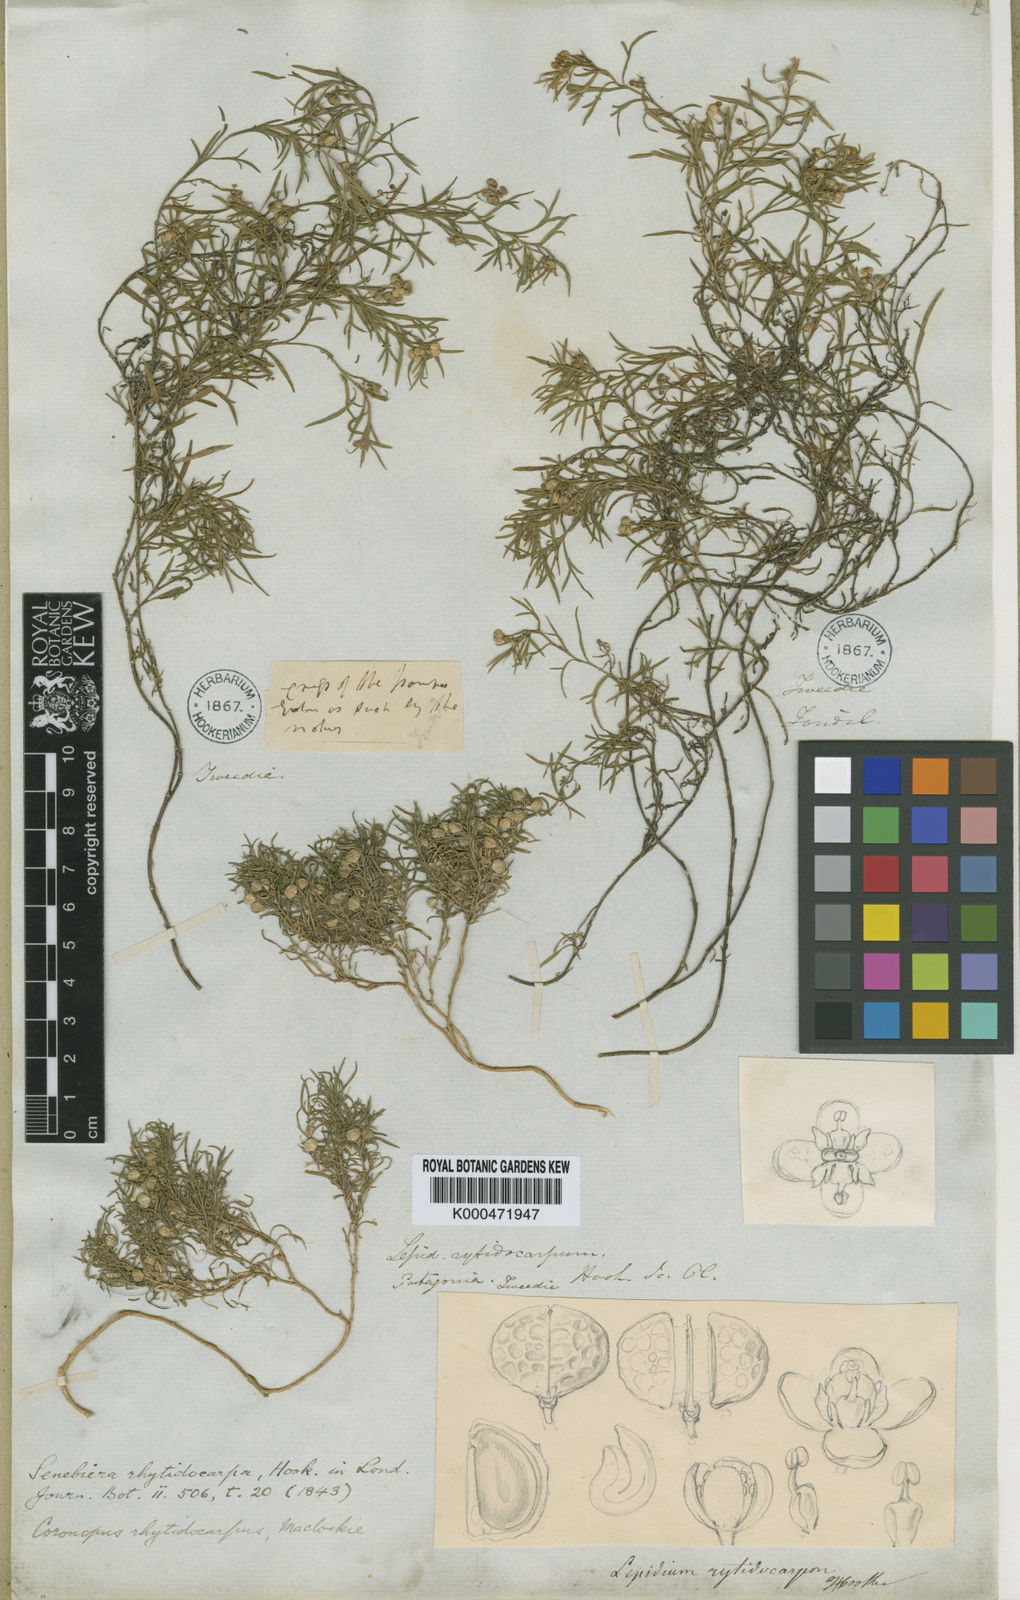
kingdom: Plantae
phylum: Tracheophyta
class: Magnoliopsida
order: Brassicales
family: Brassicaceae
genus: Lepidium
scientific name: Lepidium rhytidocarpum
